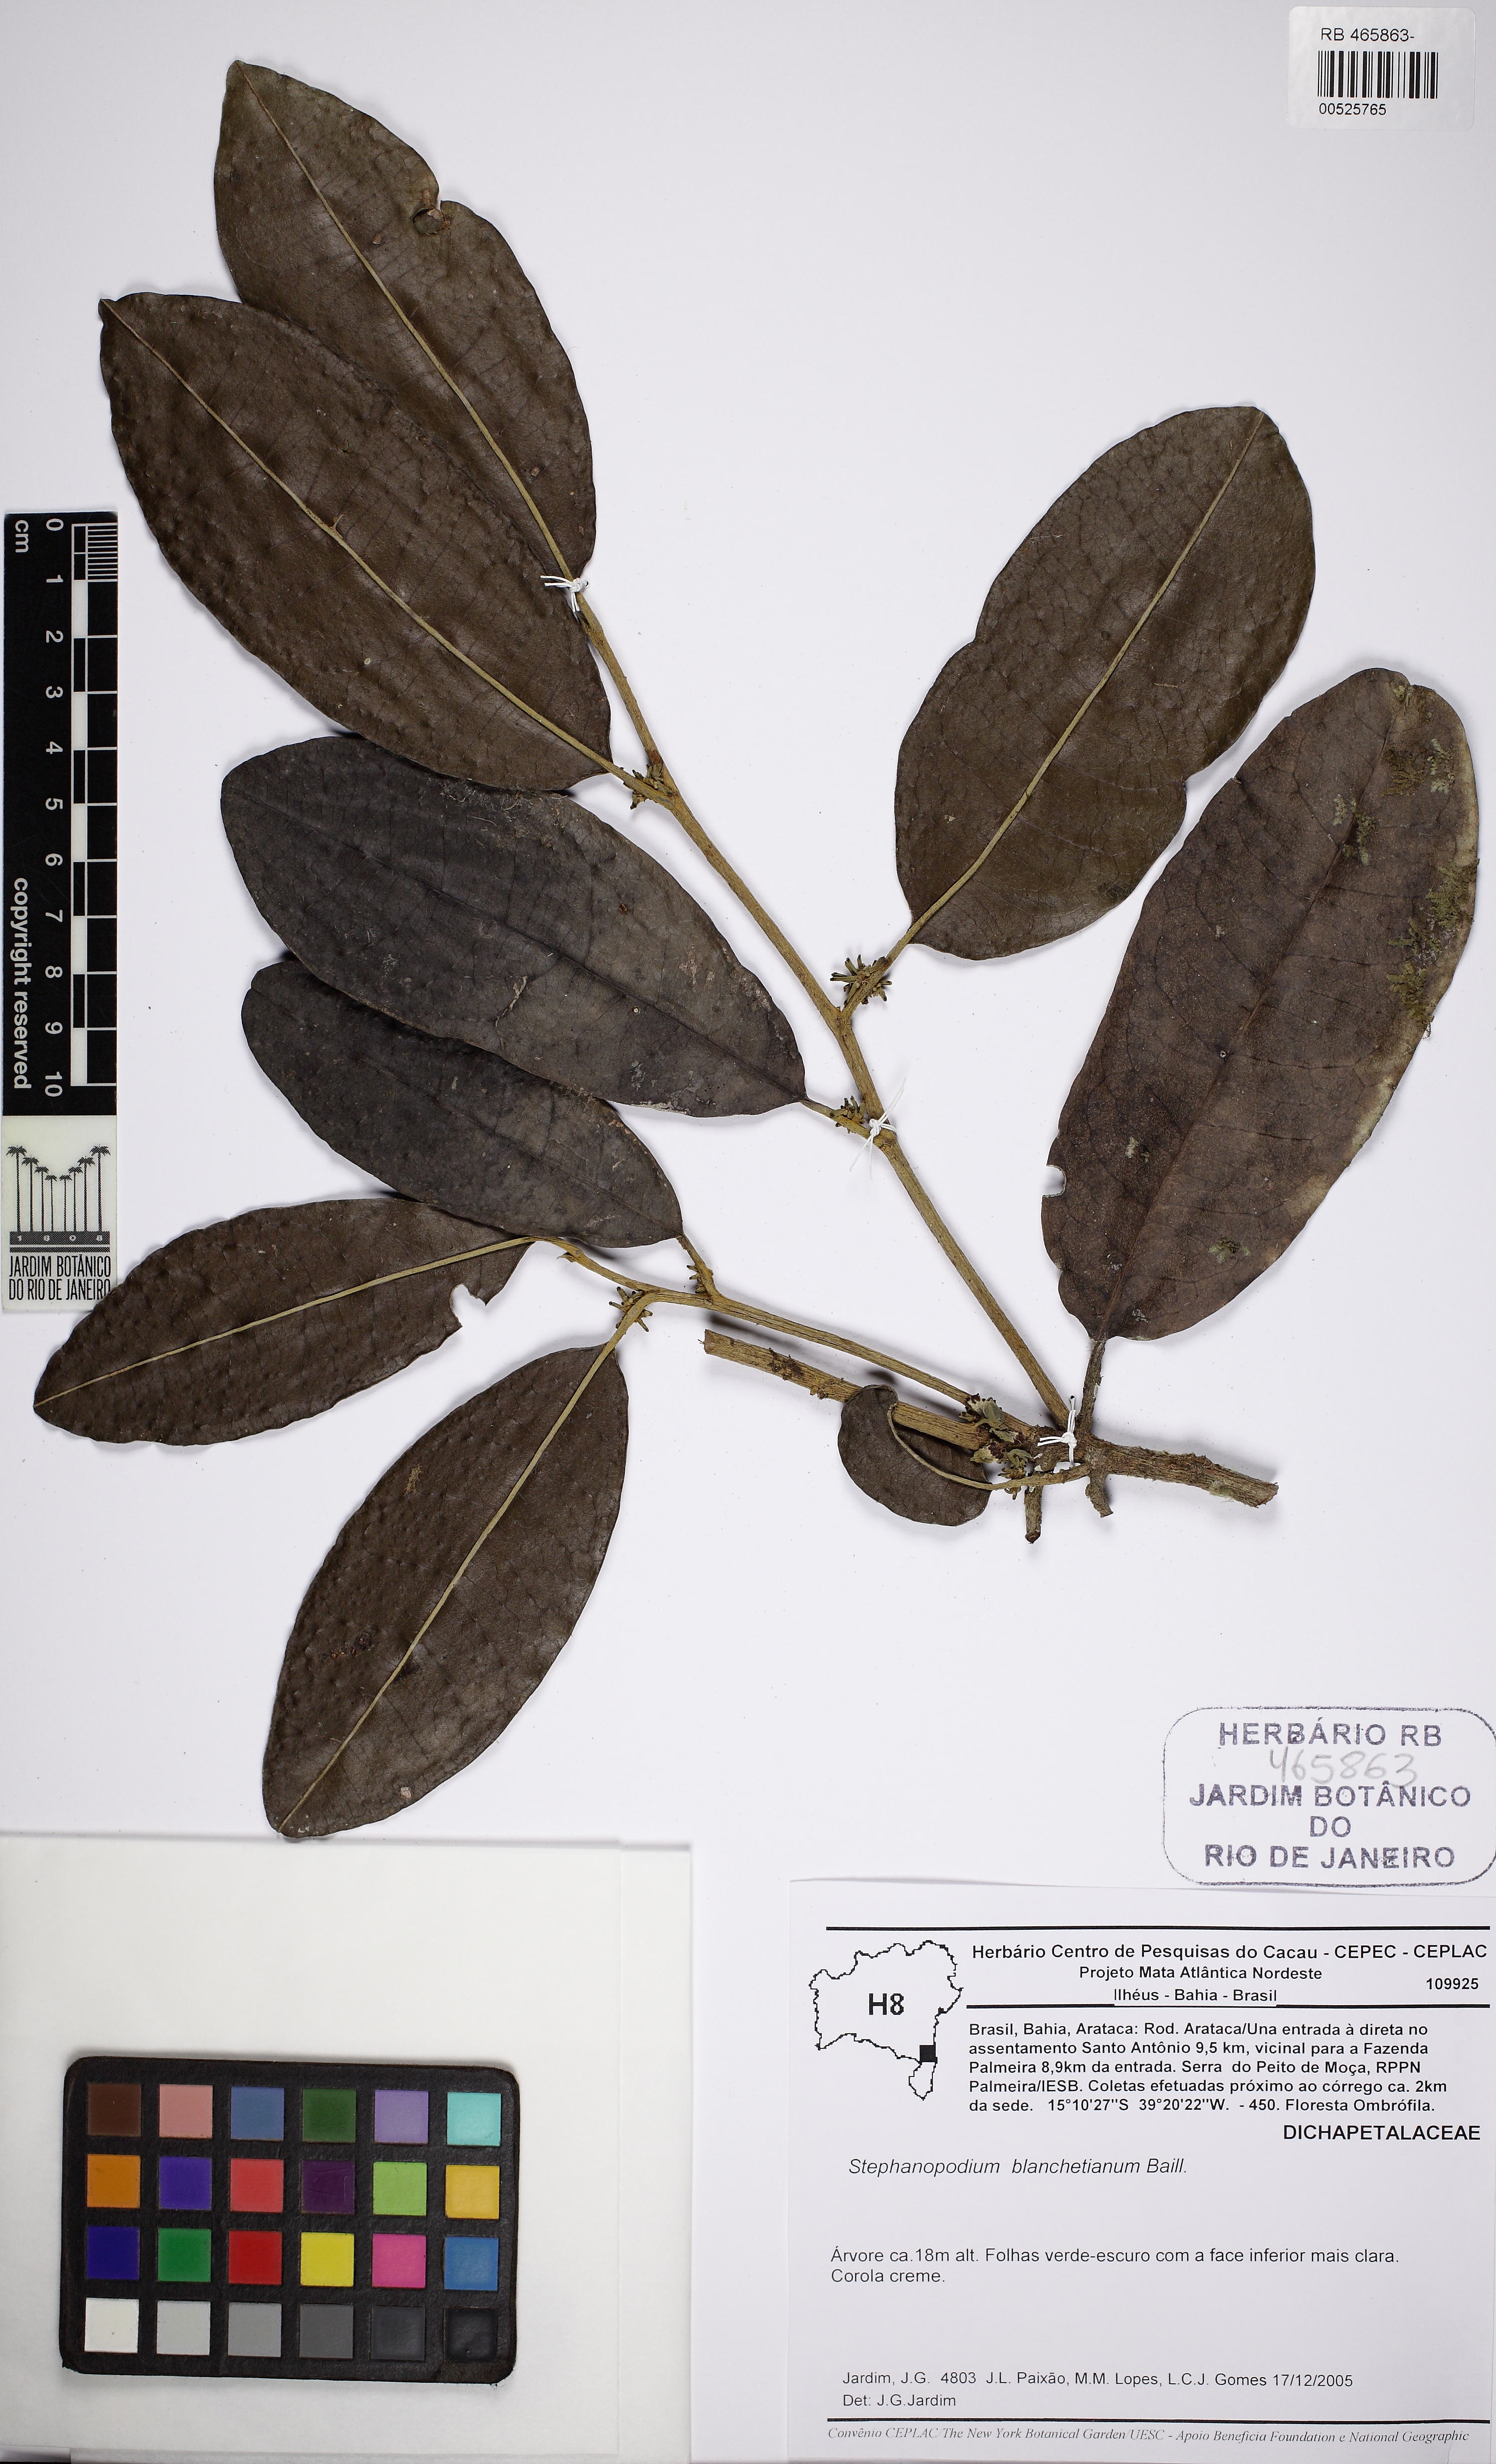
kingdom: Plantae
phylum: Tracheophyta
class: Magnoliopsida
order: Malpighiales
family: Dichapetalaceae
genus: Stephanopodium
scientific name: Stephanopodium blanchetianum
